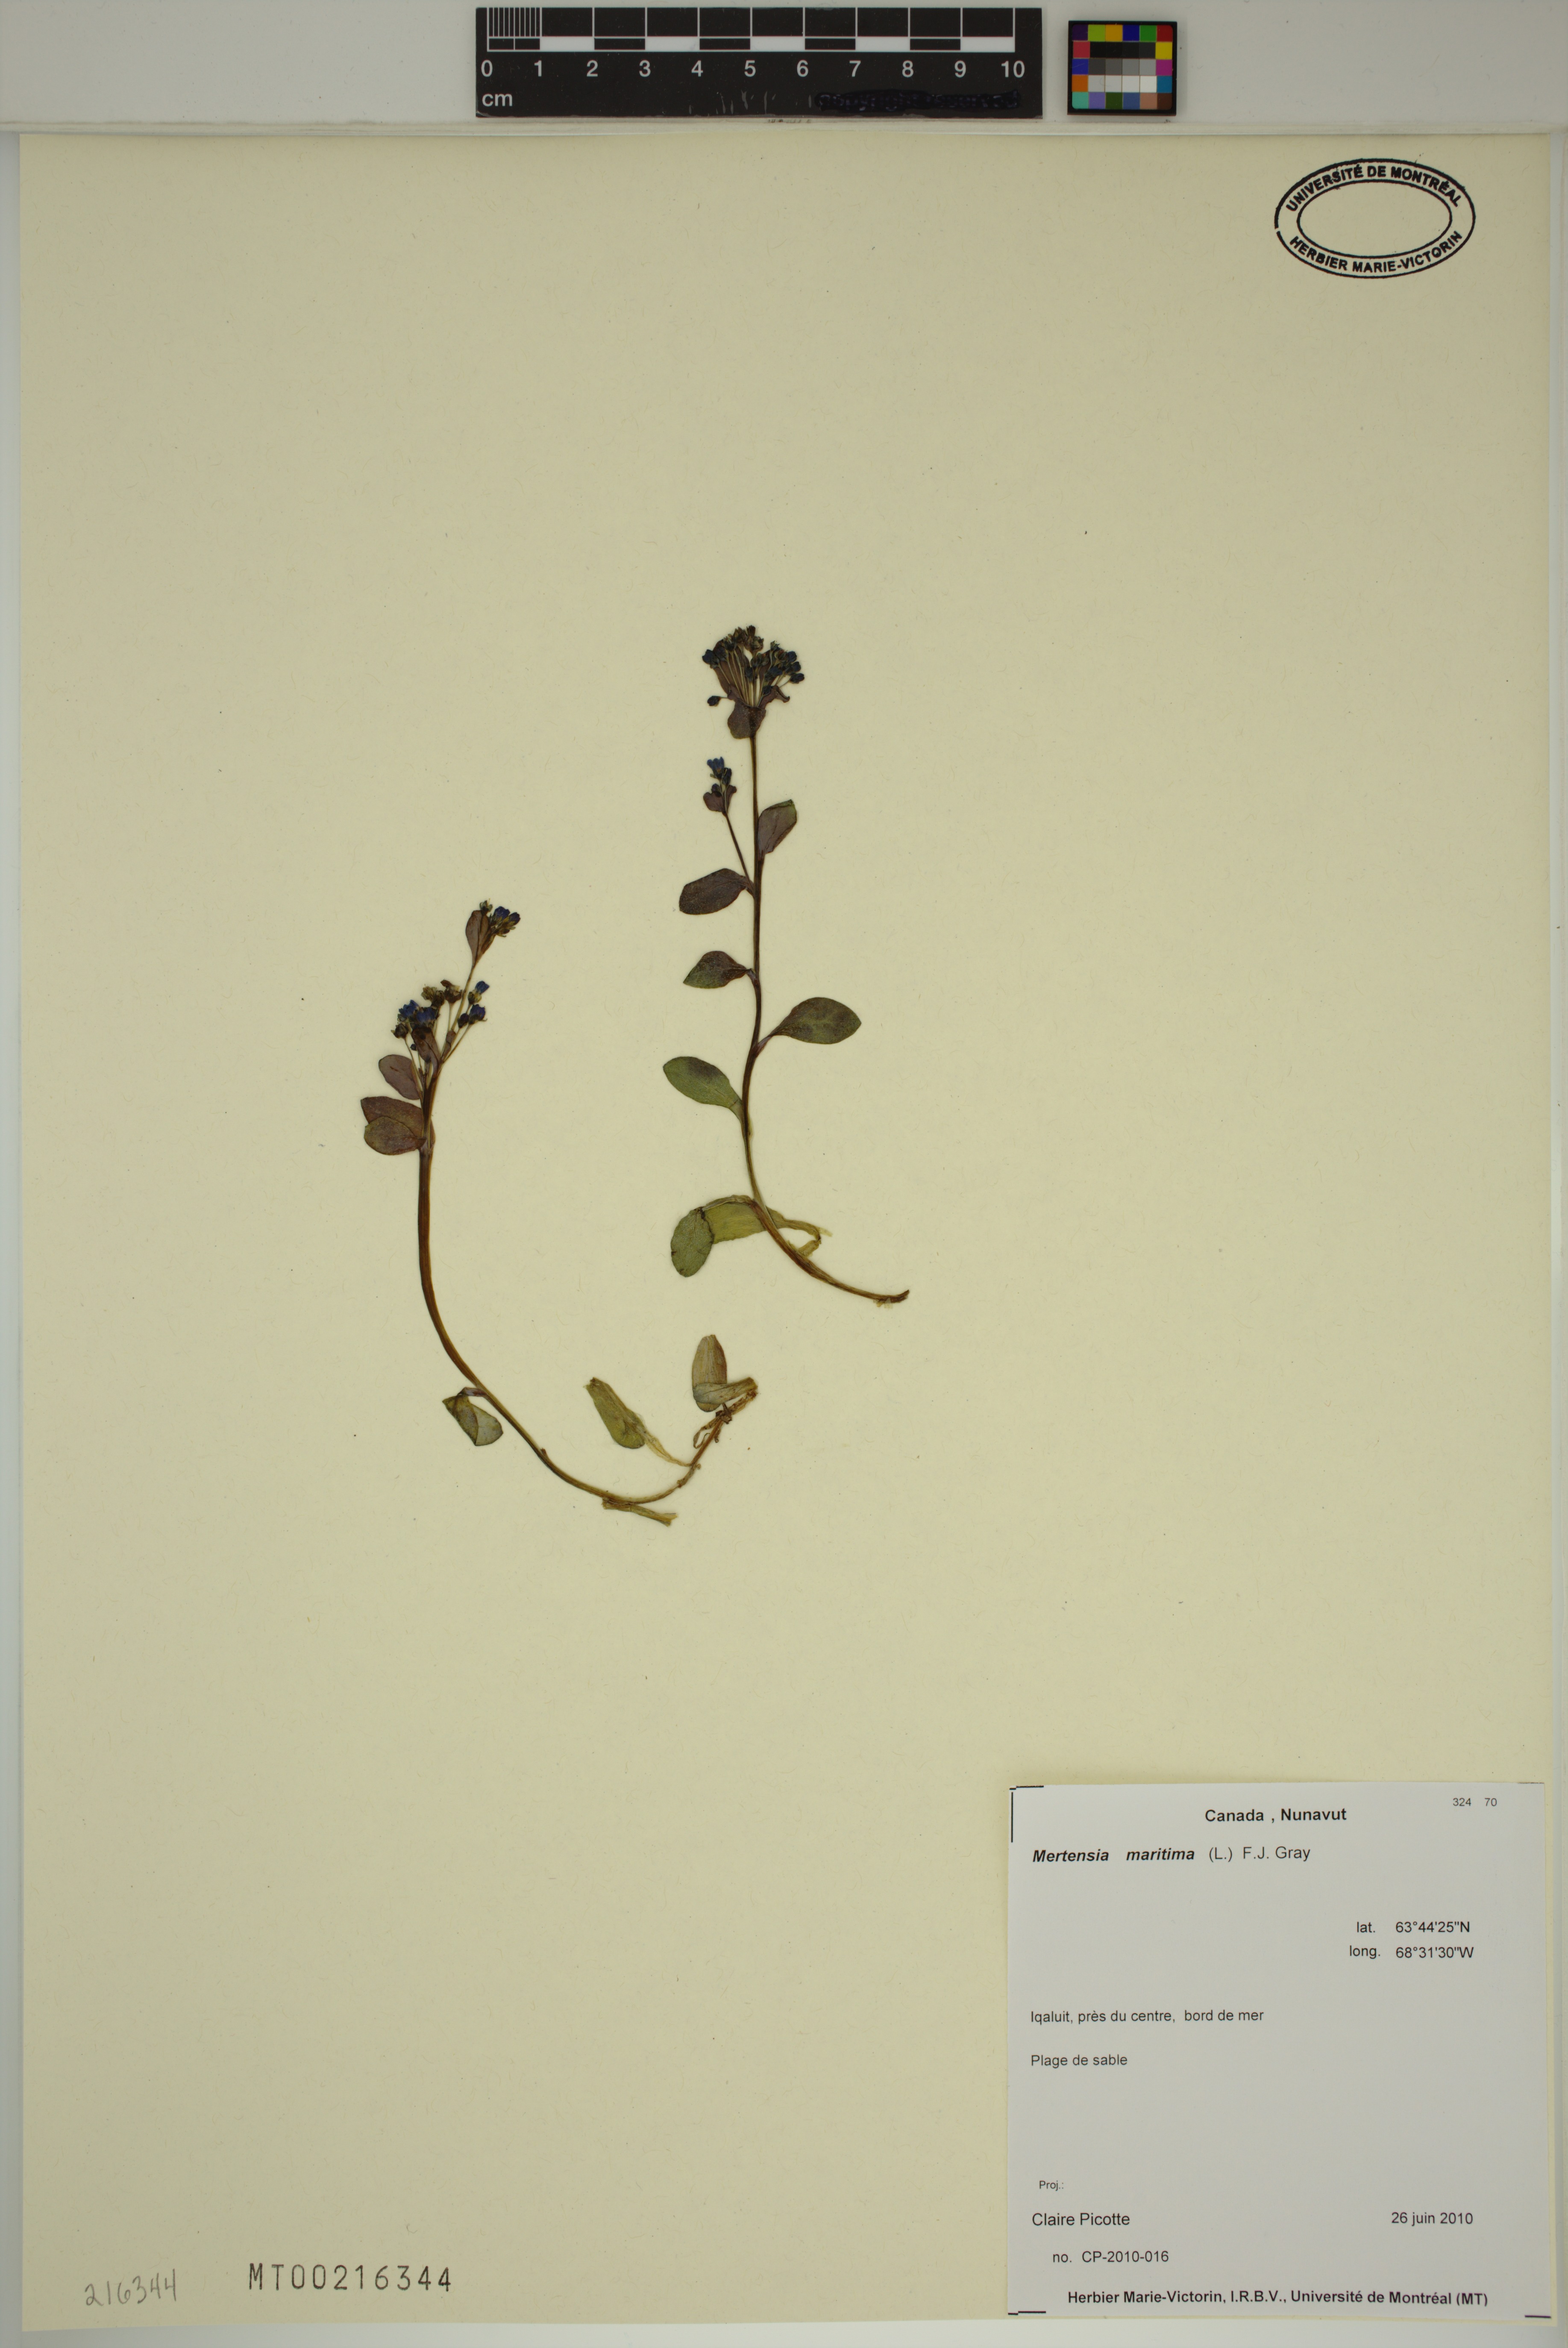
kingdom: Plantae
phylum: Tracheophyta
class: Magnoliopsida
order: Boraginales
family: Boraginaceae
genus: Mertensia
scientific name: Mertensia maritima
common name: Oysterplant
